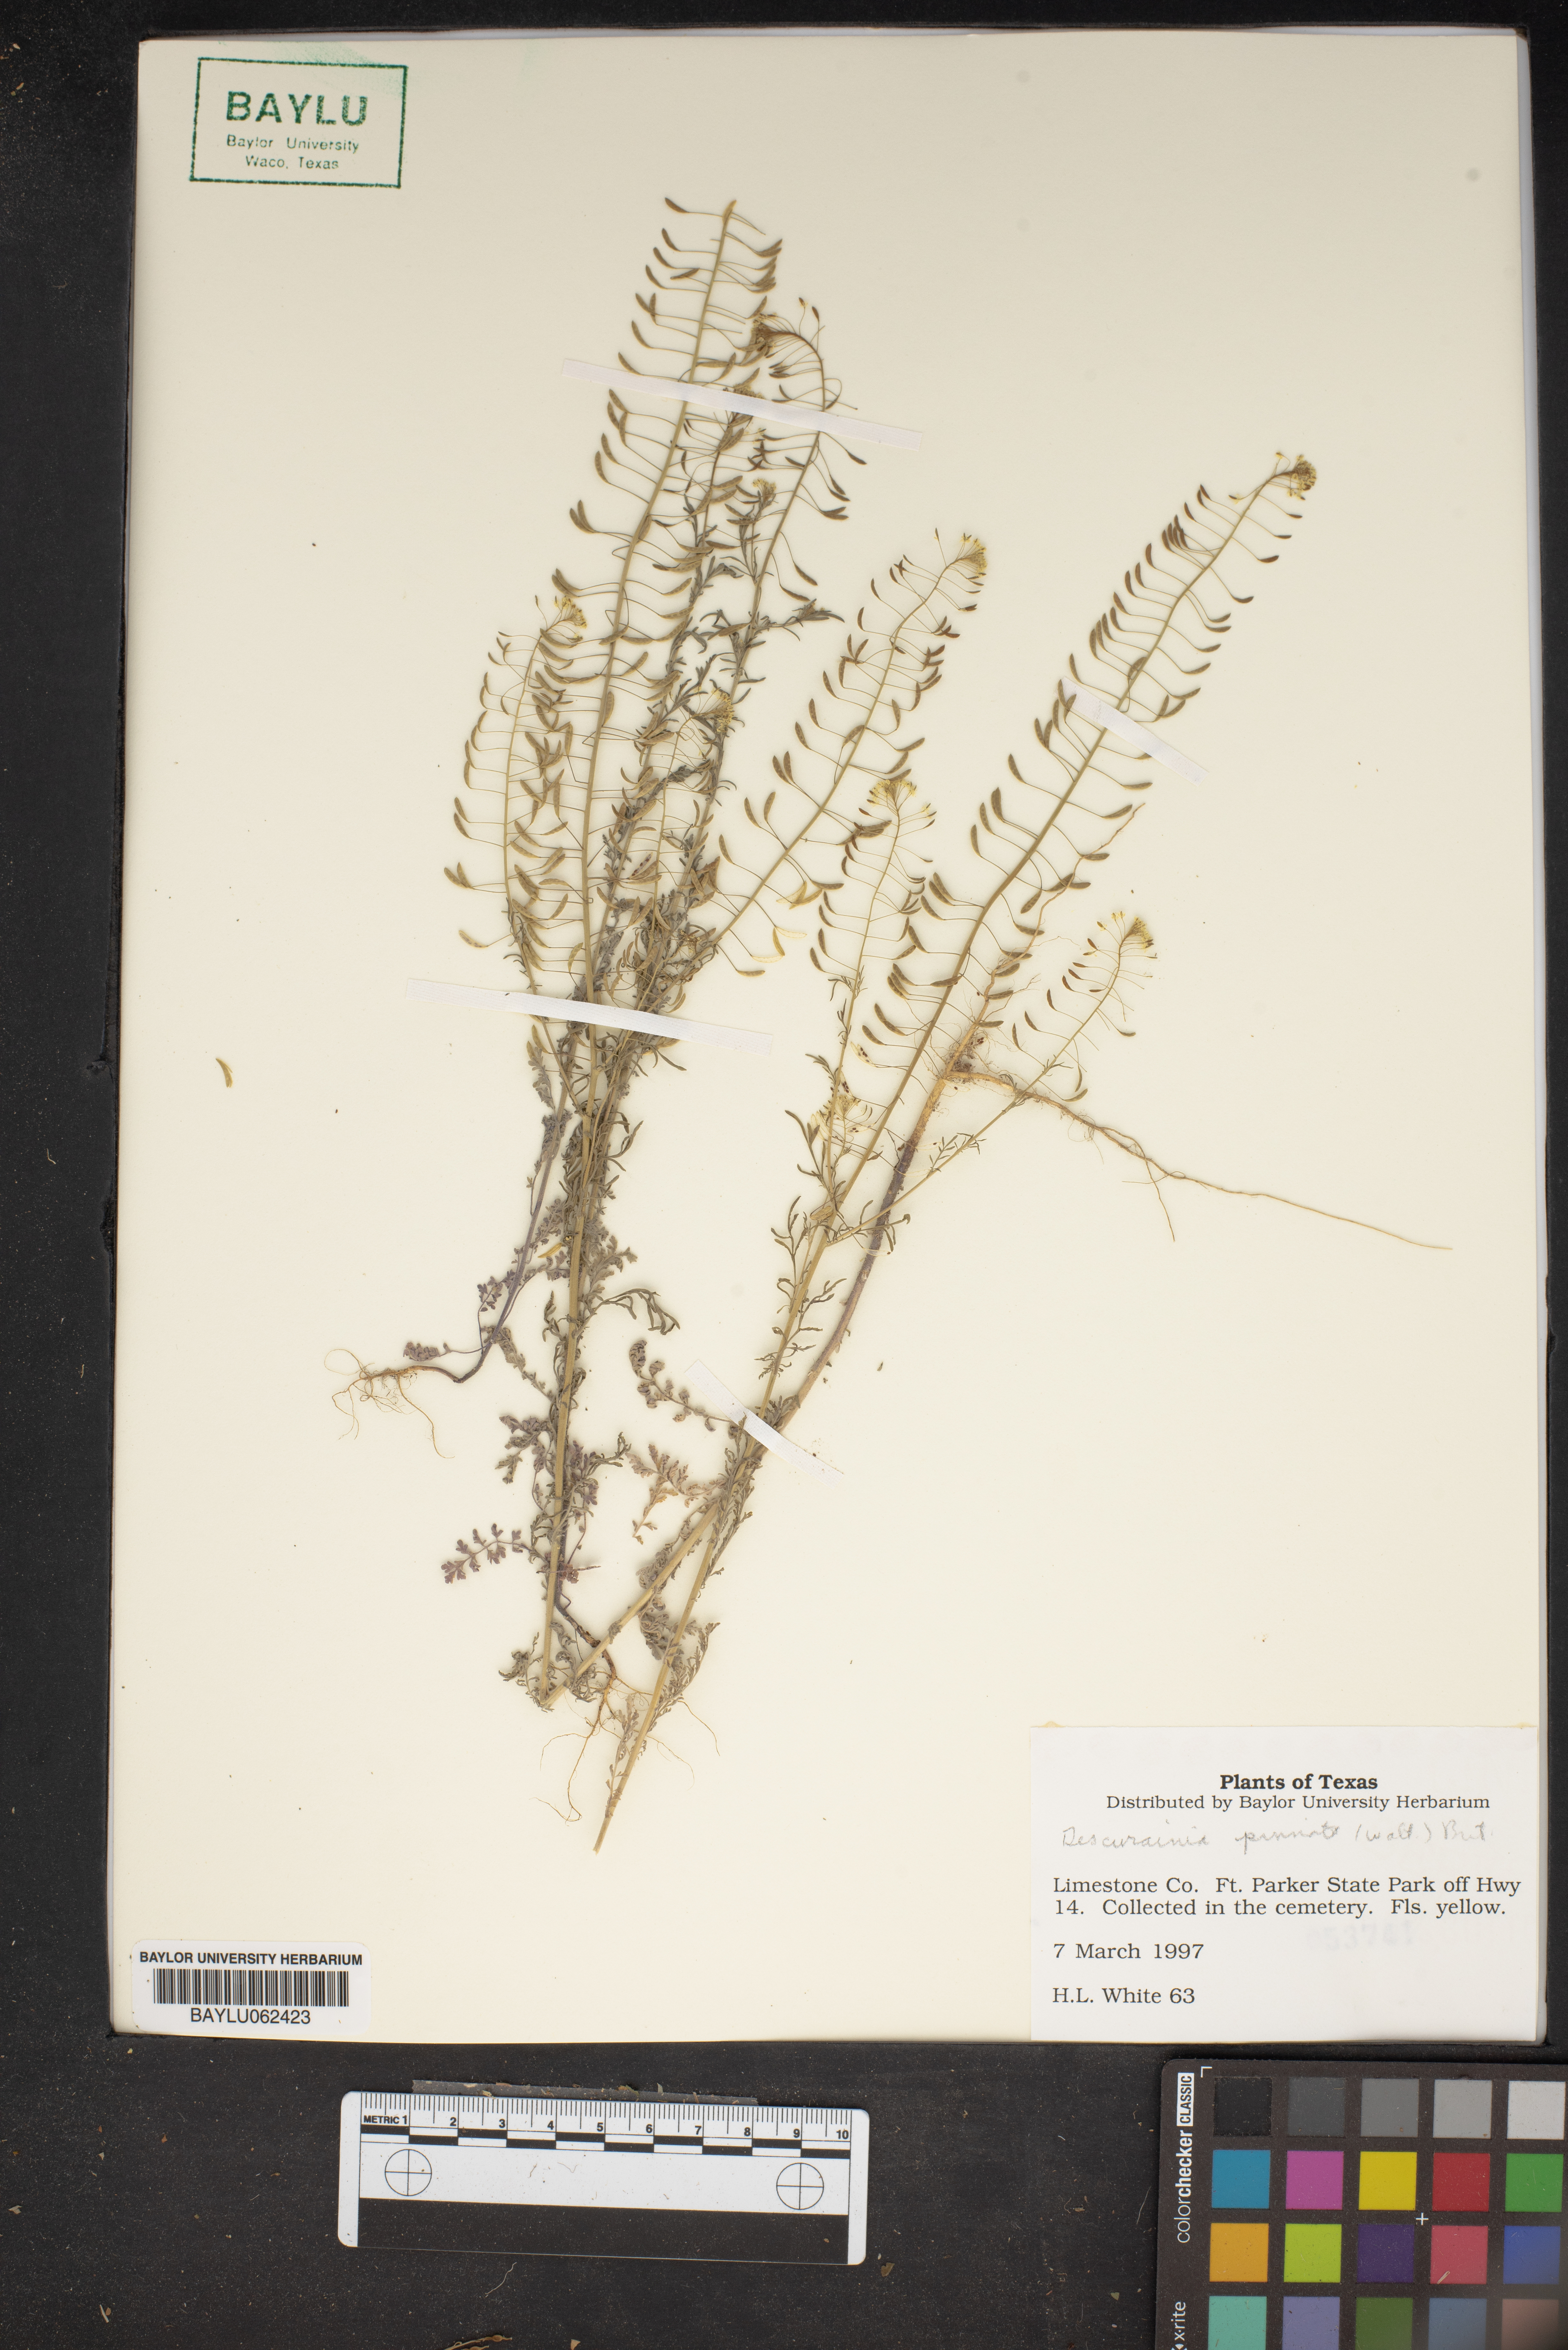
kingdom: Plantae
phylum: Tracheophyta
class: Magnoliopsida
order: Brassicales
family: Brassicaceae
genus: Descurainia
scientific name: Descurainia pinnata
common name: Western tansy mustard
